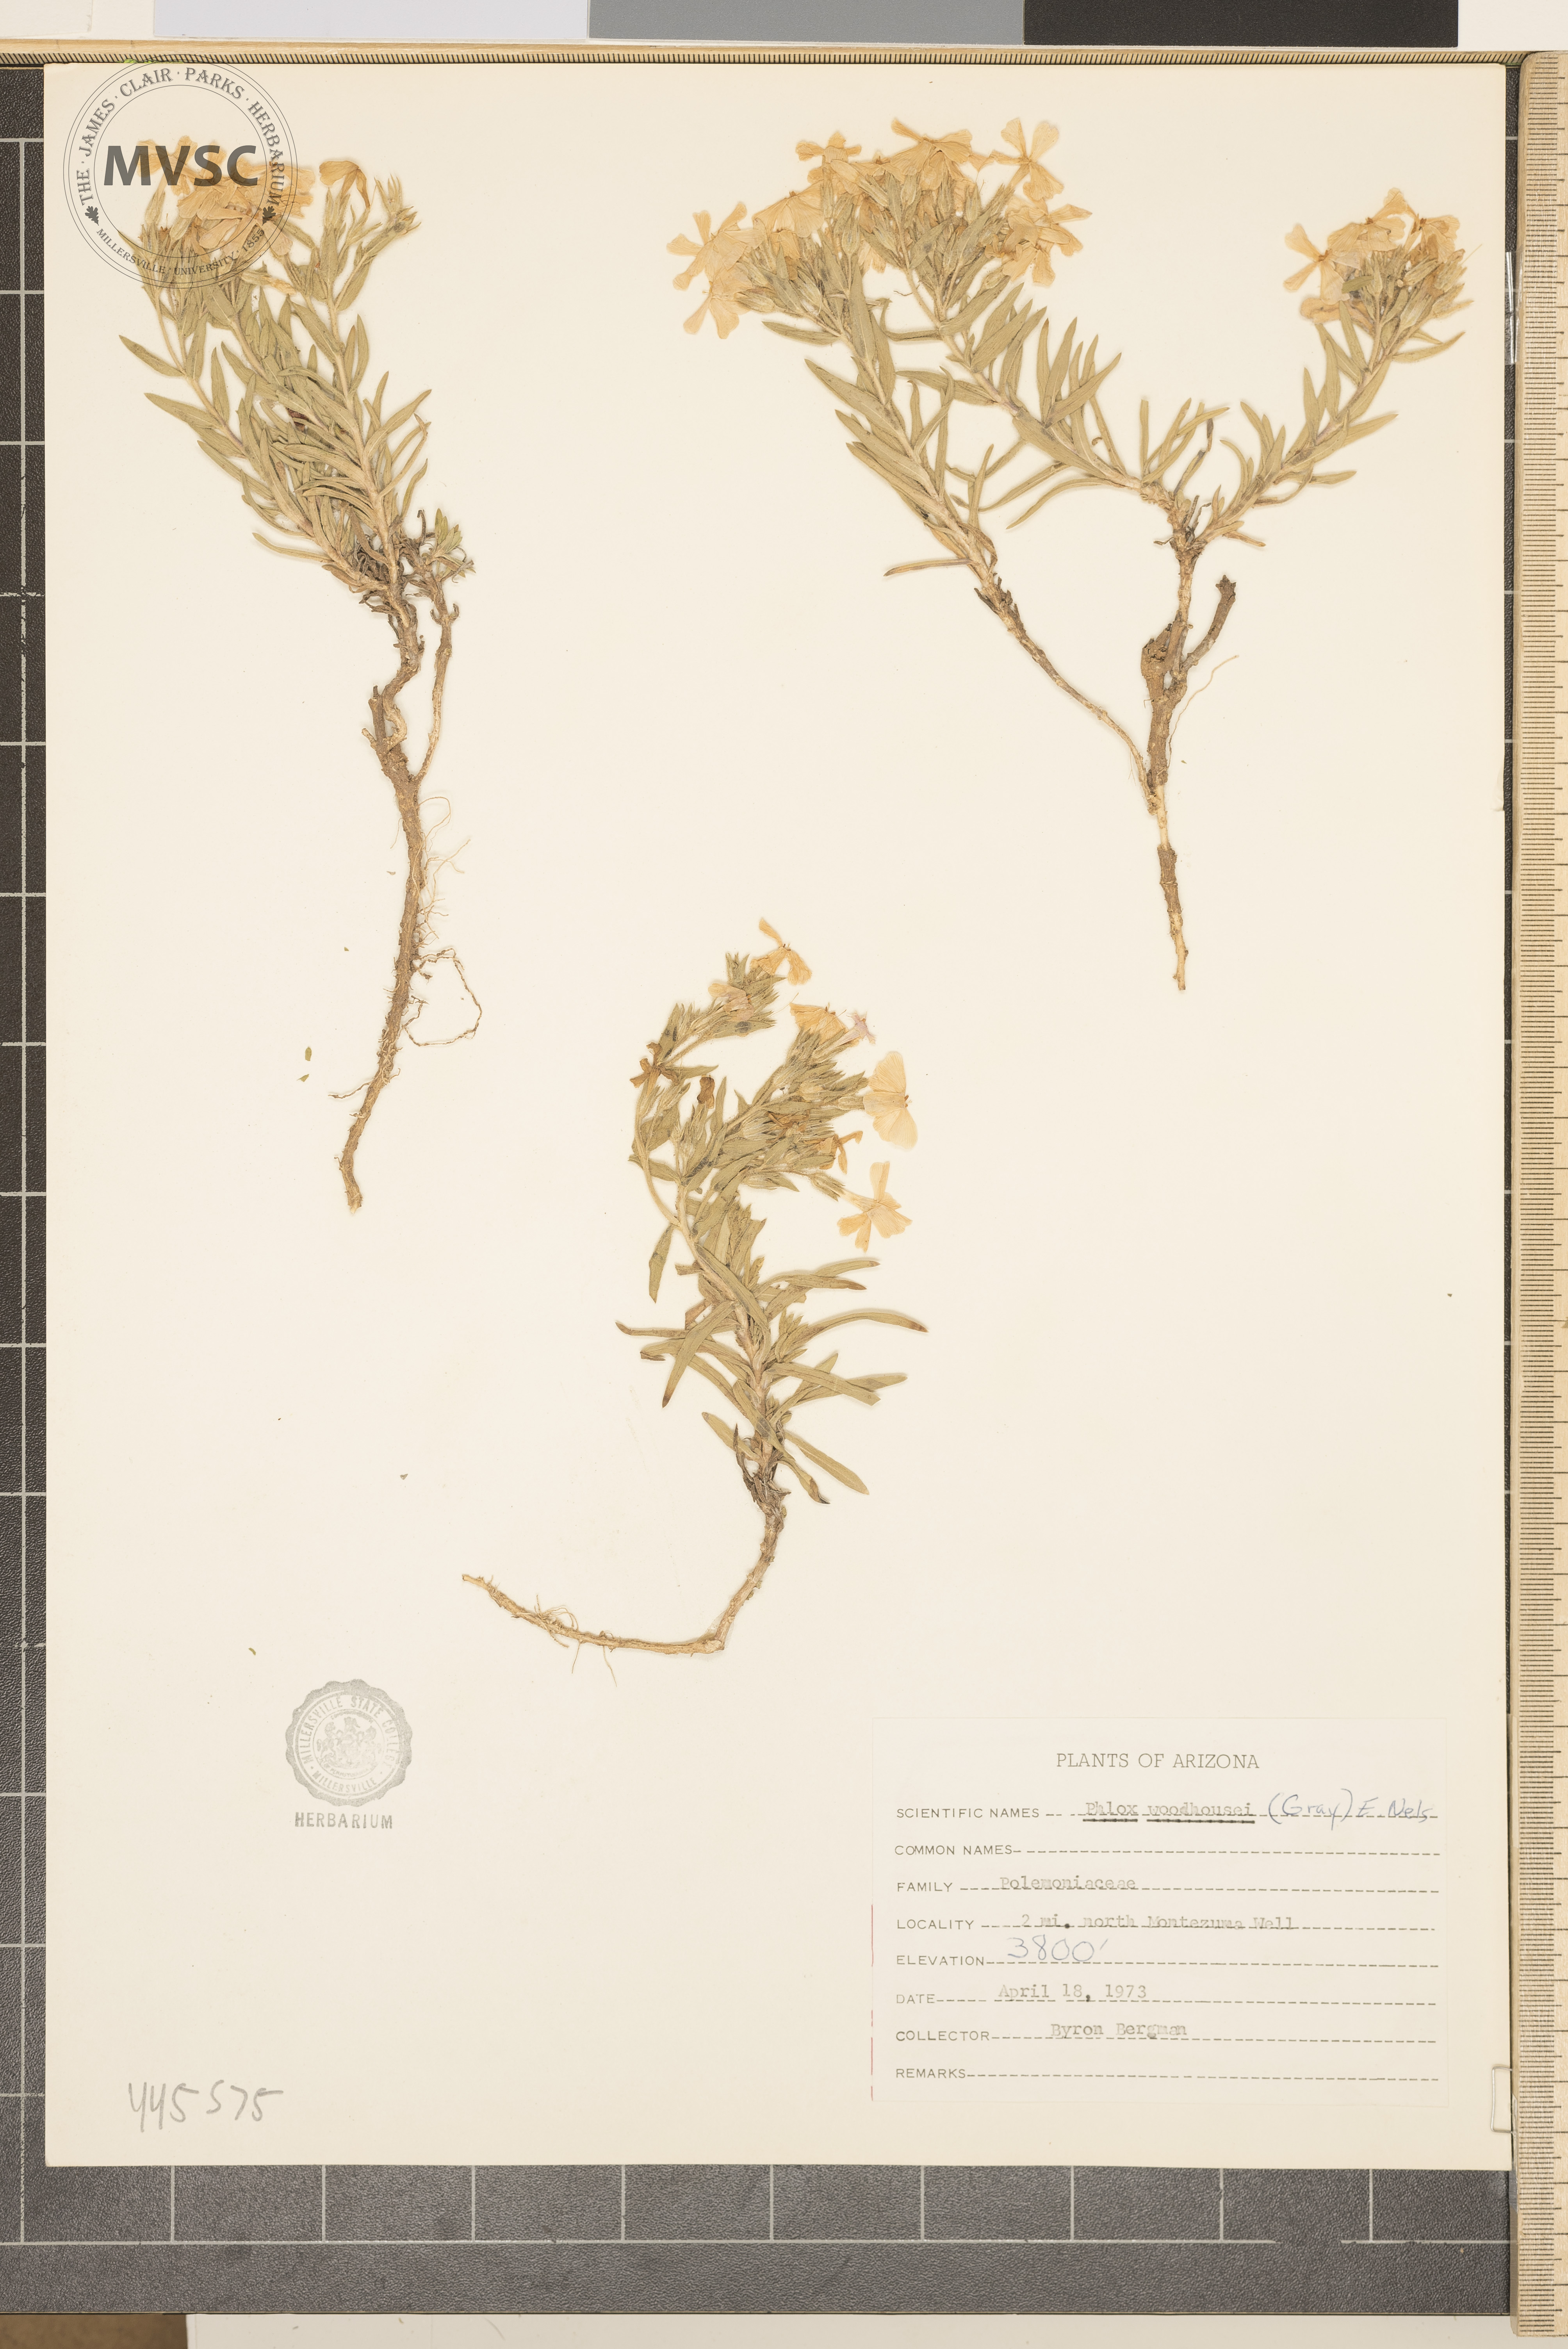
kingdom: Plantae
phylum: Tracheophyta
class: Magnoliopsida
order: Ericales
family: Polemoniaceae
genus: Phlox
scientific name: Phlox woodhousei
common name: Star phlox
